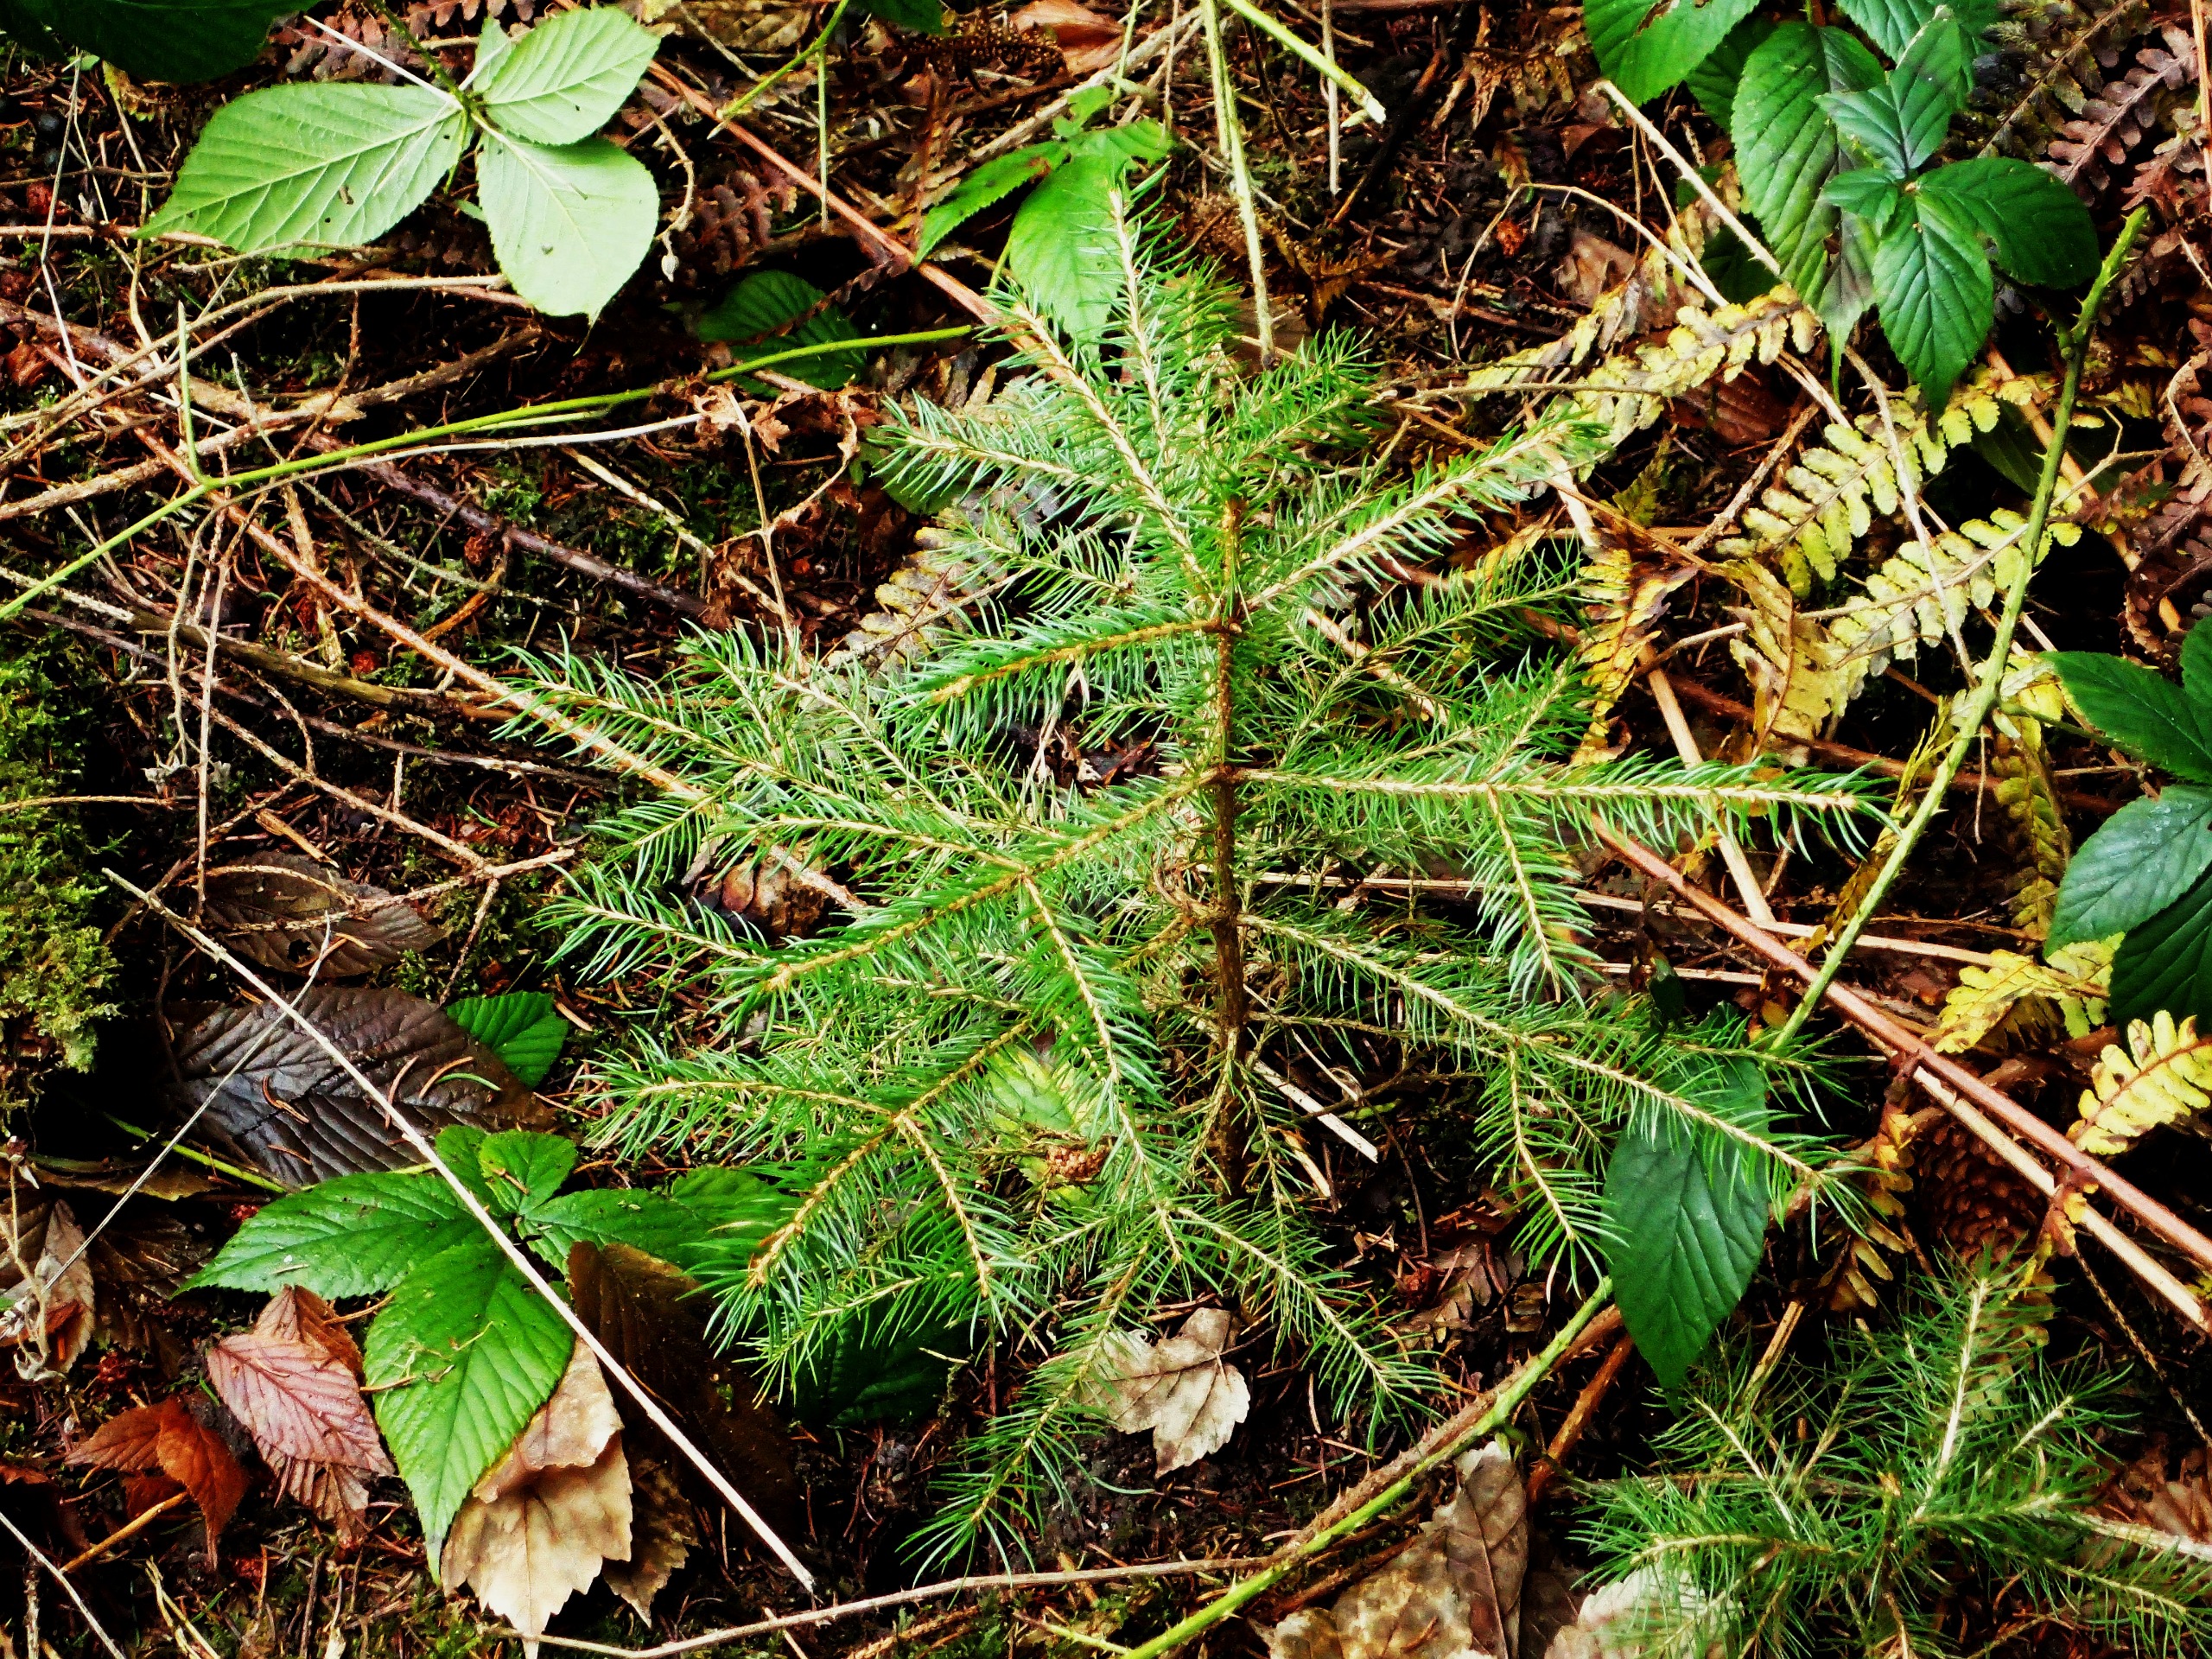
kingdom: Plantae
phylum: Tracheophyta
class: Pinopsida
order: Pinales
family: Pinaceae
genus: Picea
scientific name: Picea abies
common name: Rød-gran
